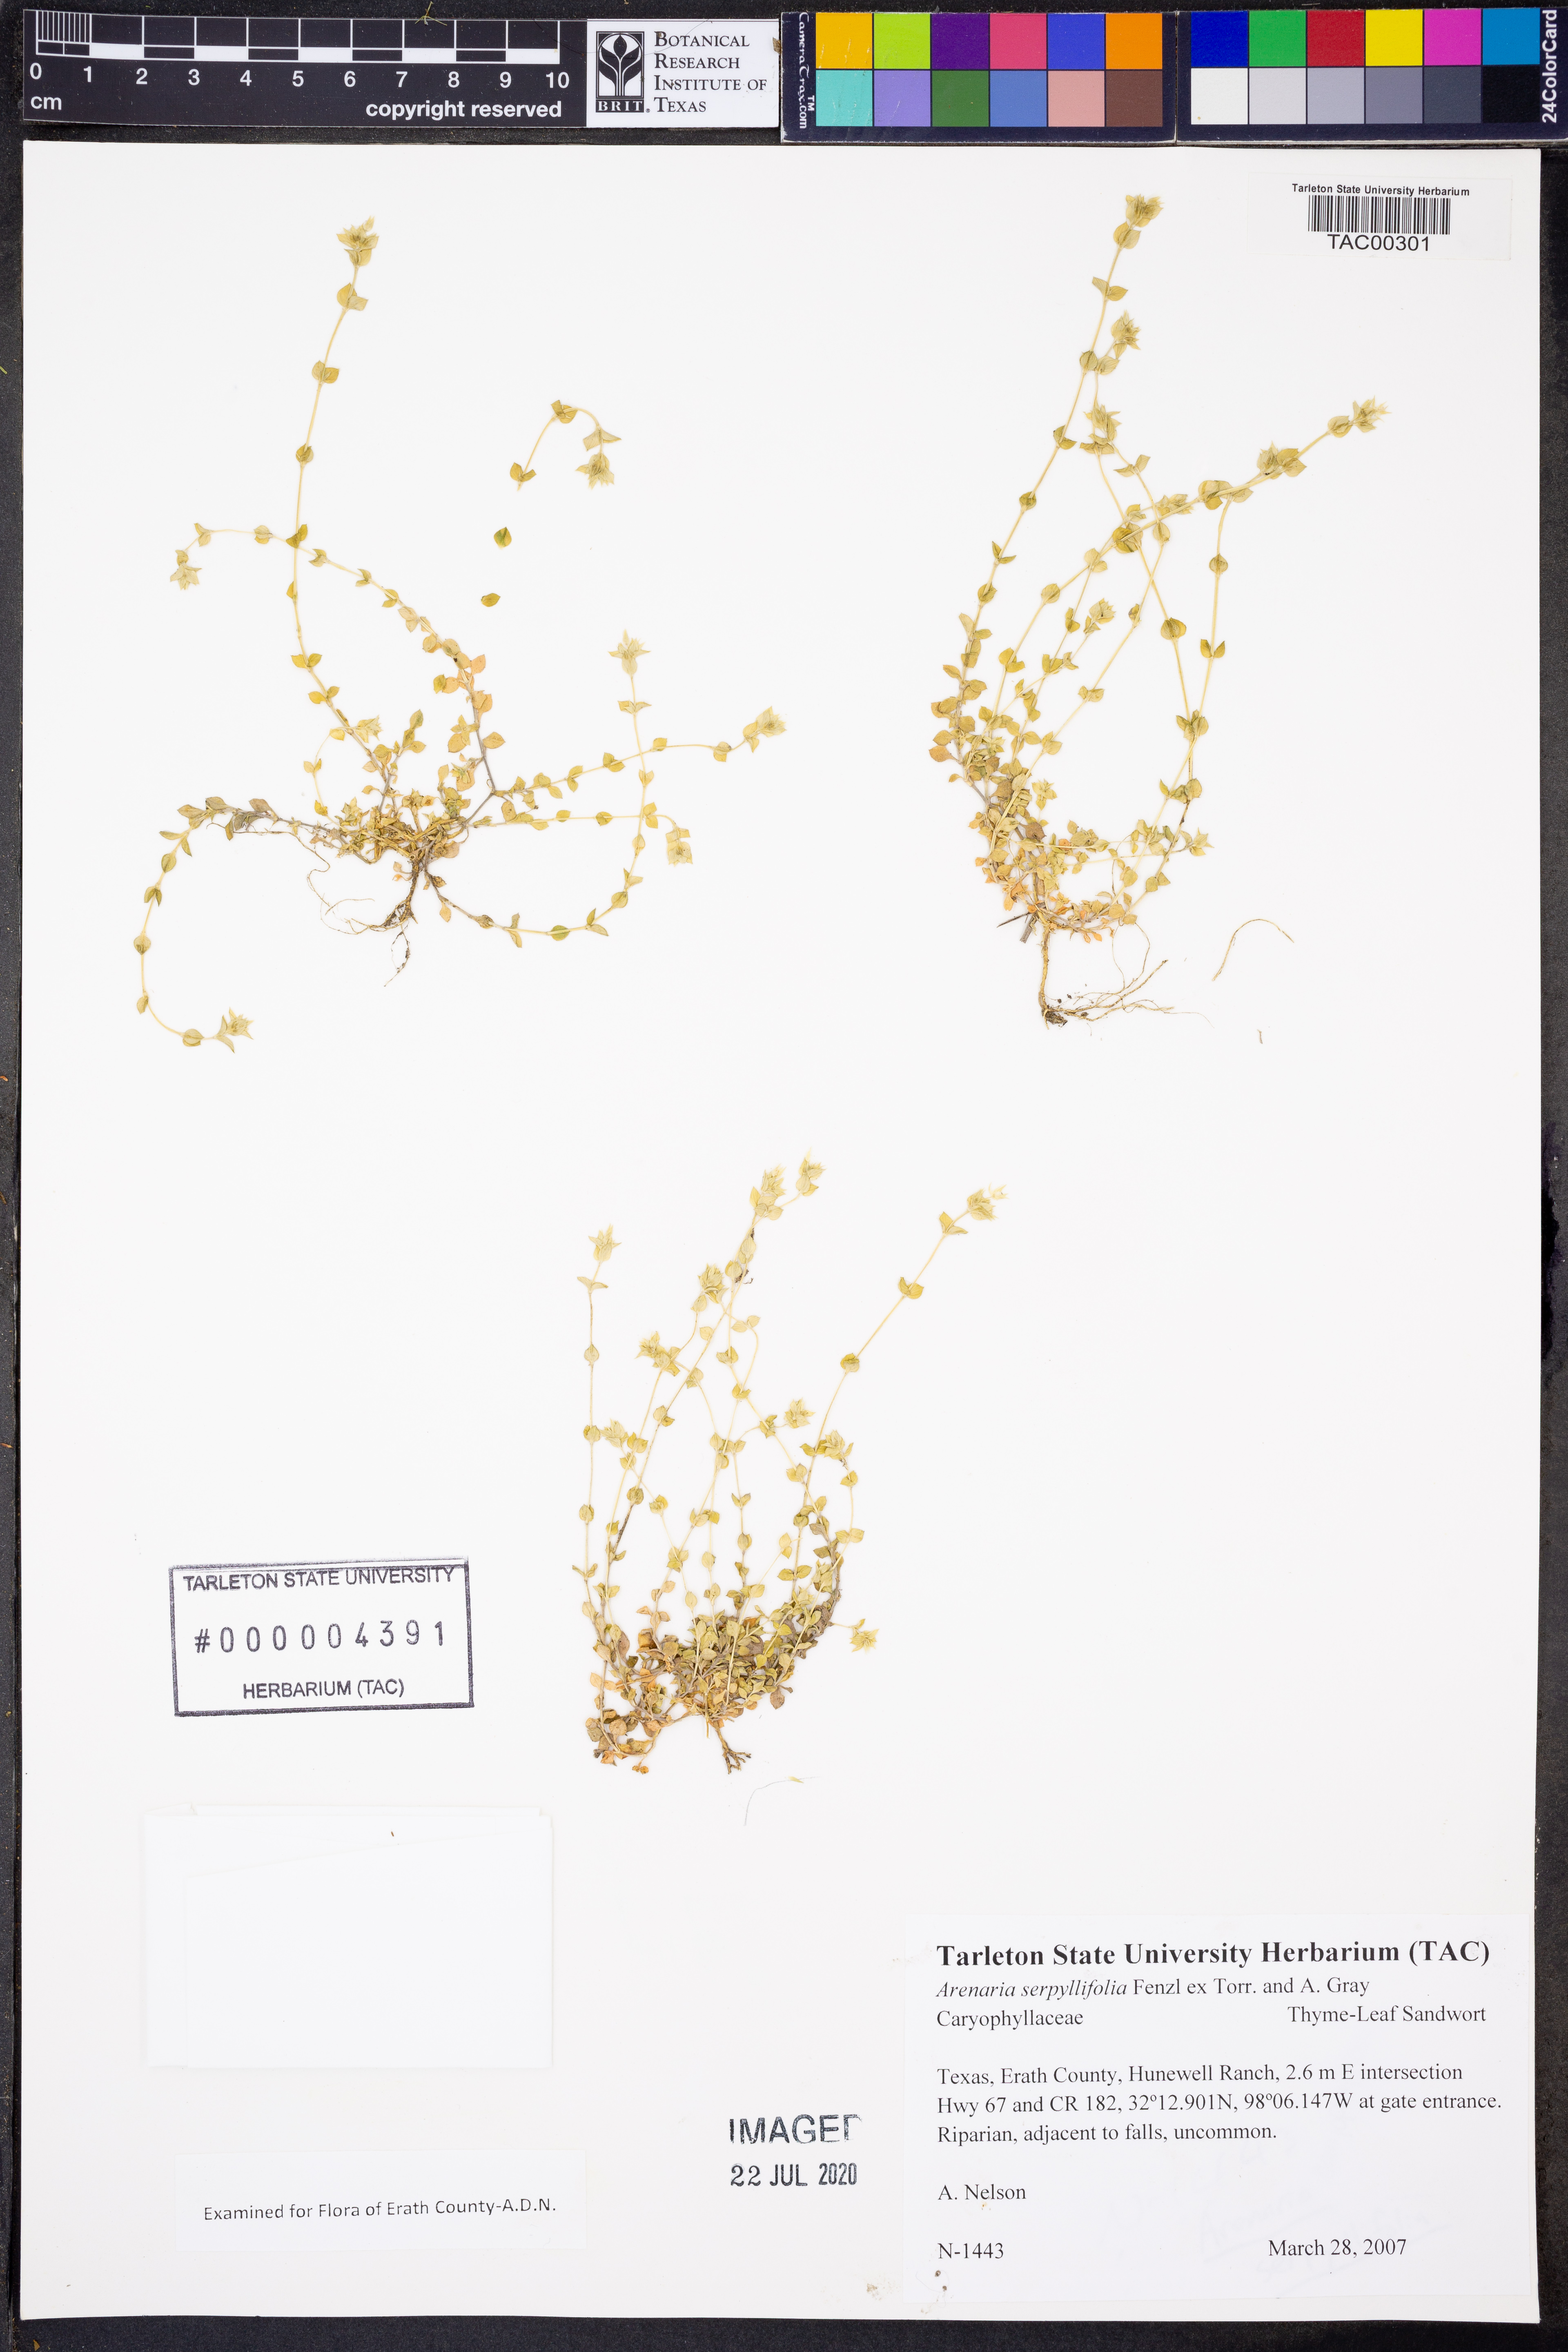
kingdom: Plantae
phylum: Tracheophyta
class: Magnoliopsida
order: Caryophyllales
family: Caryophyllaceae
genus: Arenaria
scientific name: Arenaria serpyllifolia
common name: Thyme-leaved sandwort
